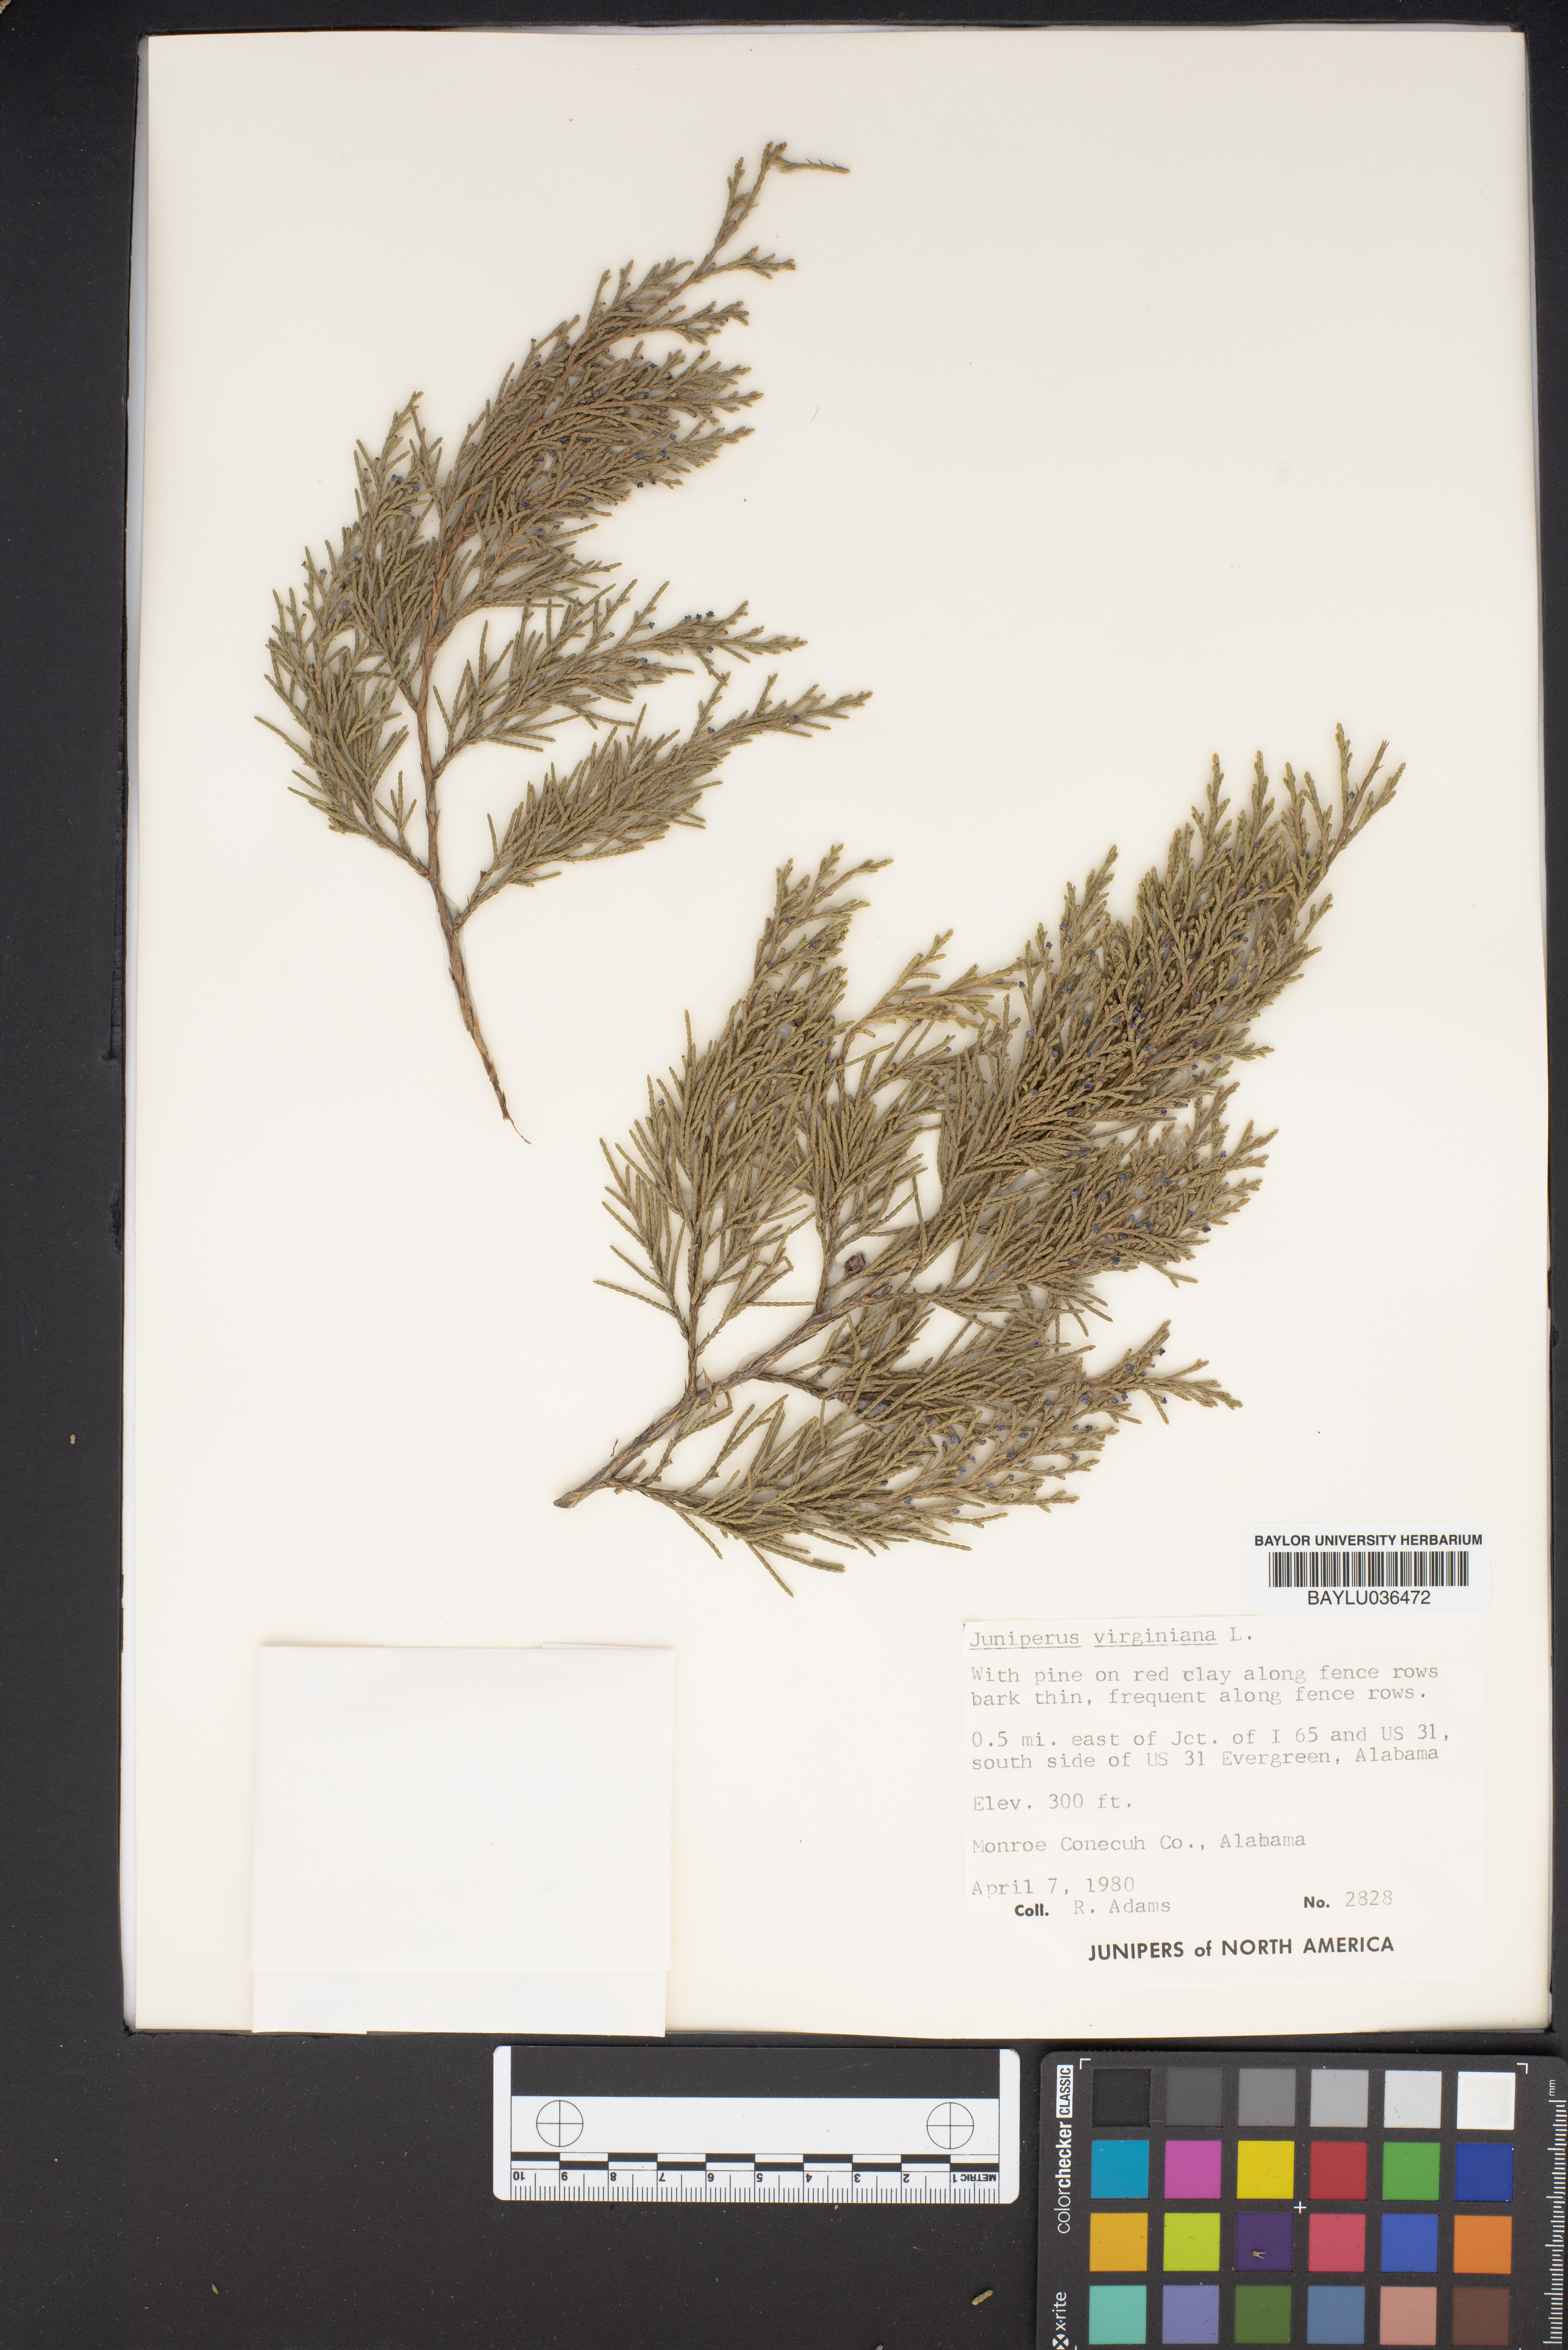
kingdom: Plantae
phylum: Tracheophyta
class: Pinopsida
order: Pinales
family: Cupressaceae
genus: Juniperus
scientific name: Juniperus virginiana
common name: Red juniper
